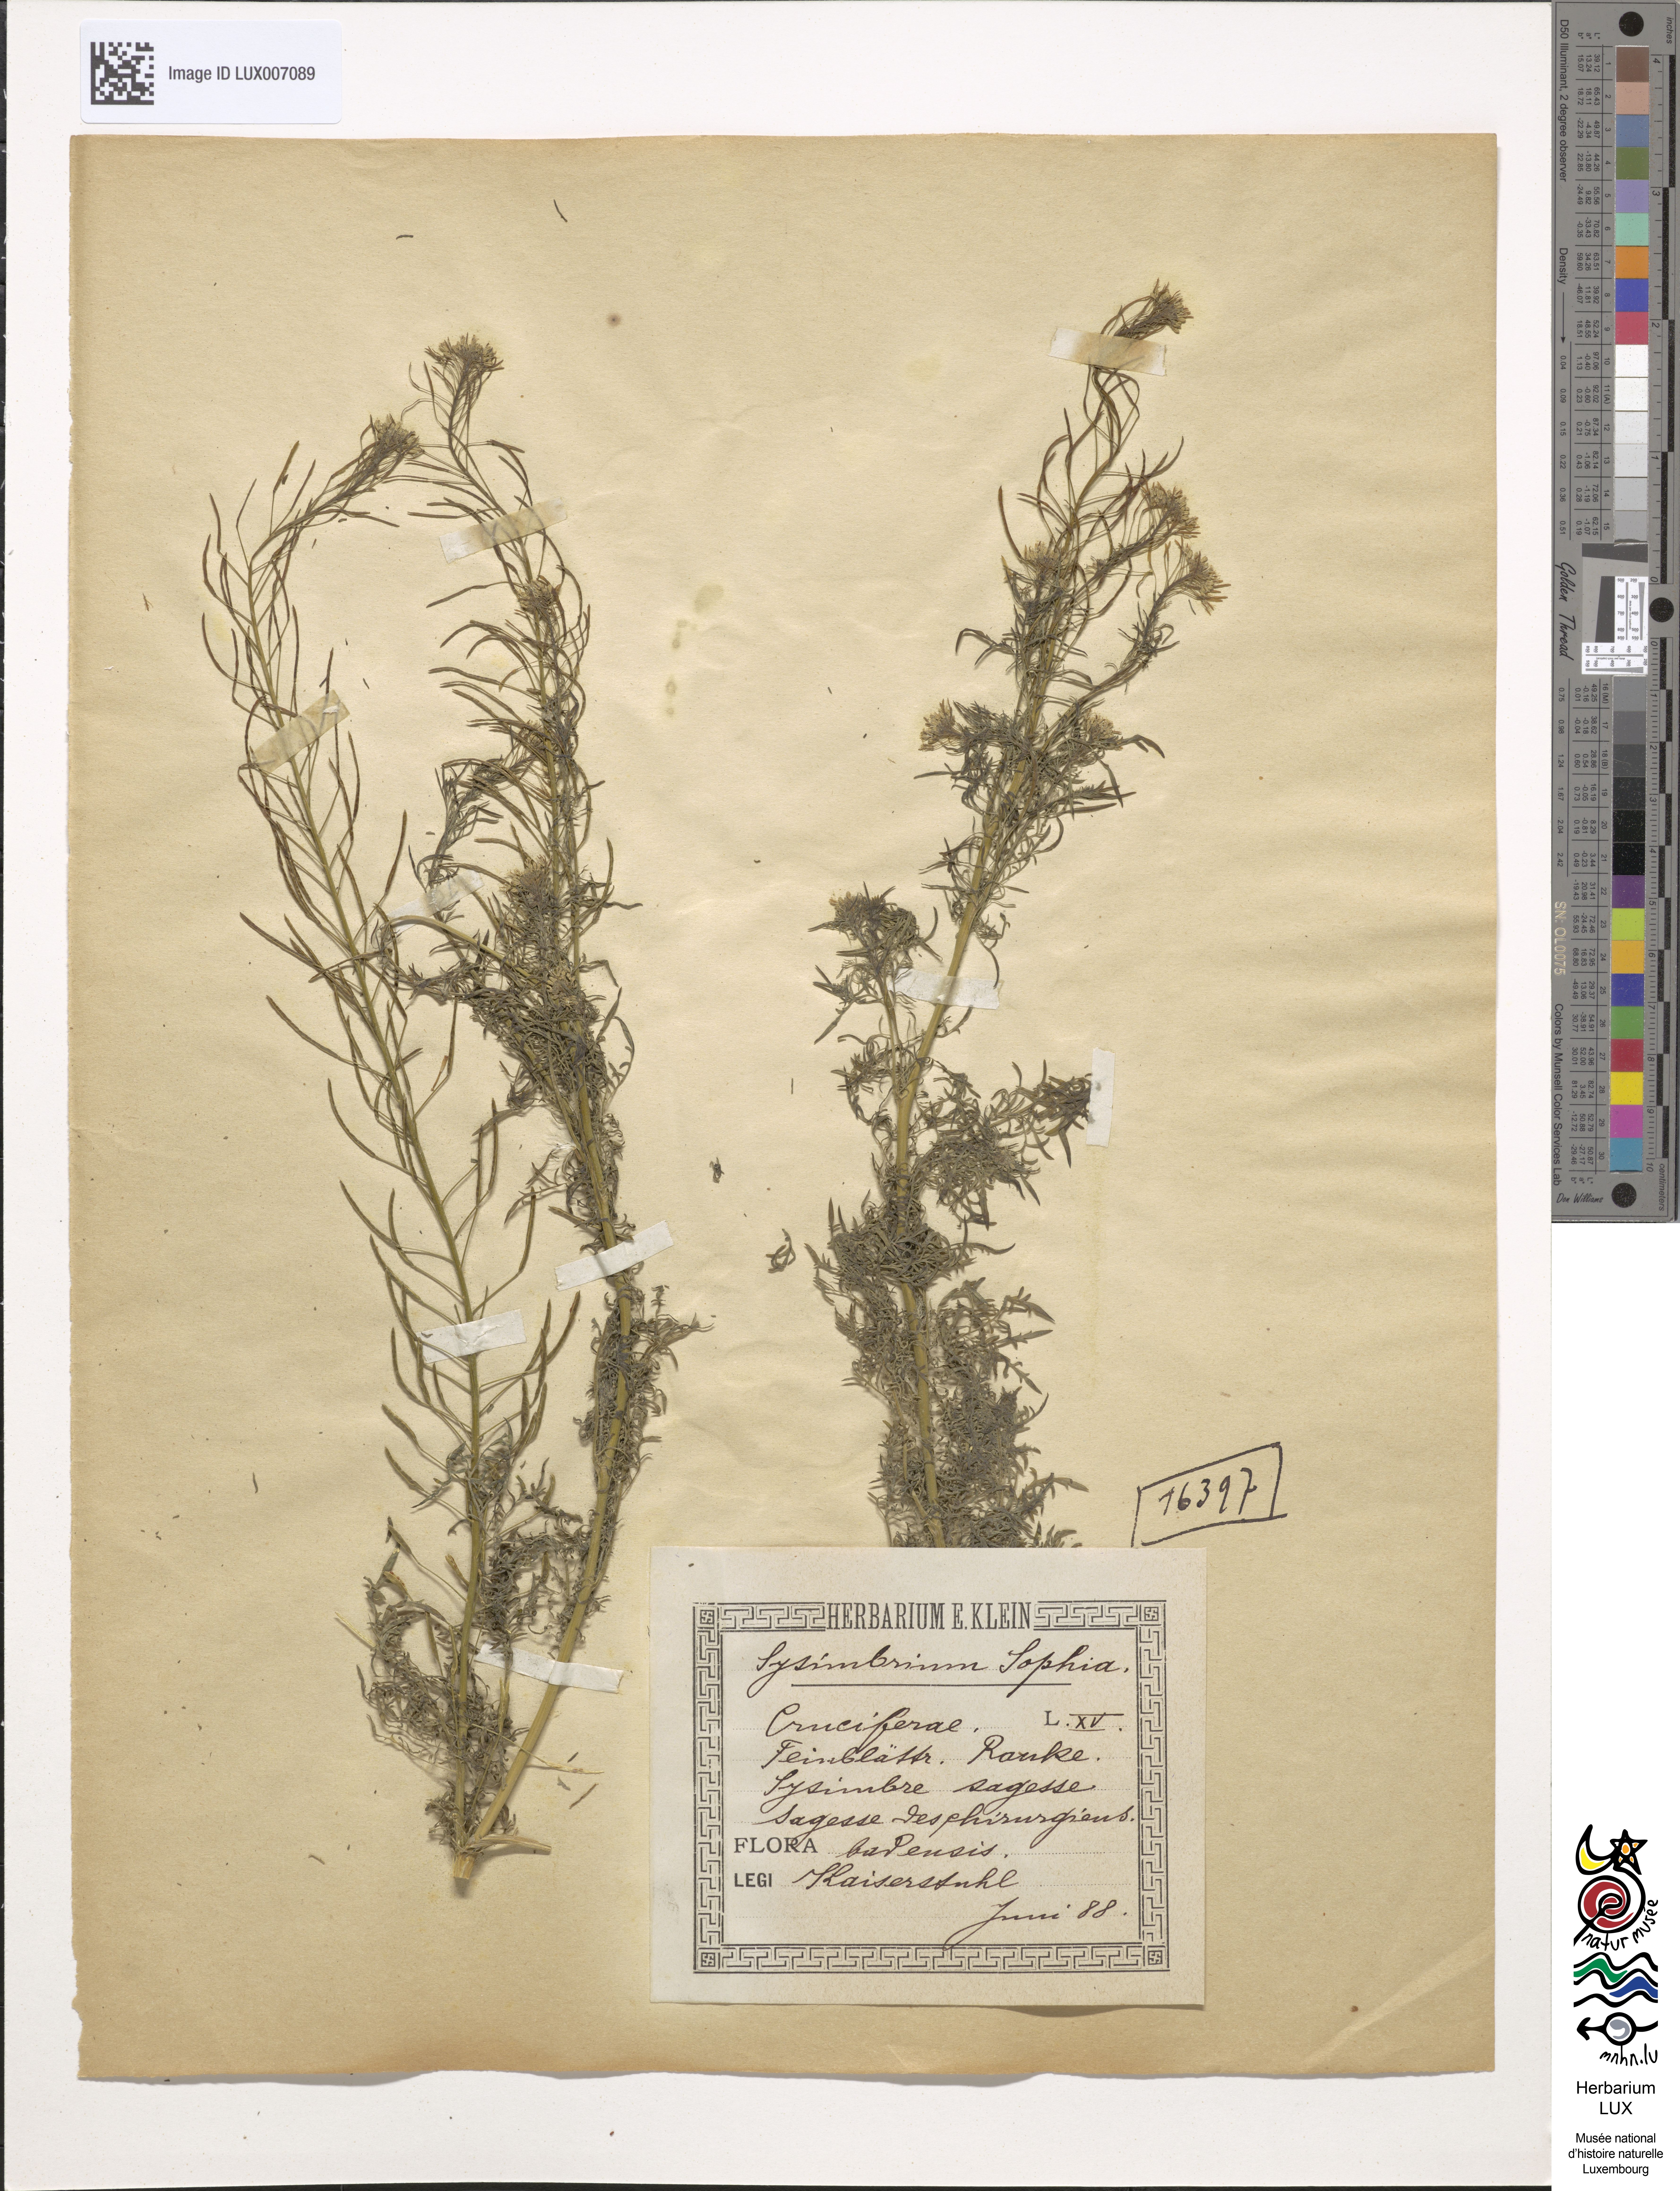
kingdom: Plantae
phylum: Tracheophyta
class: Magnoliopsida
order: Brassicales
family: Brassicaceae
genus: Descurainia
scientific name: Descurainia sophia
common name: Flixweed
